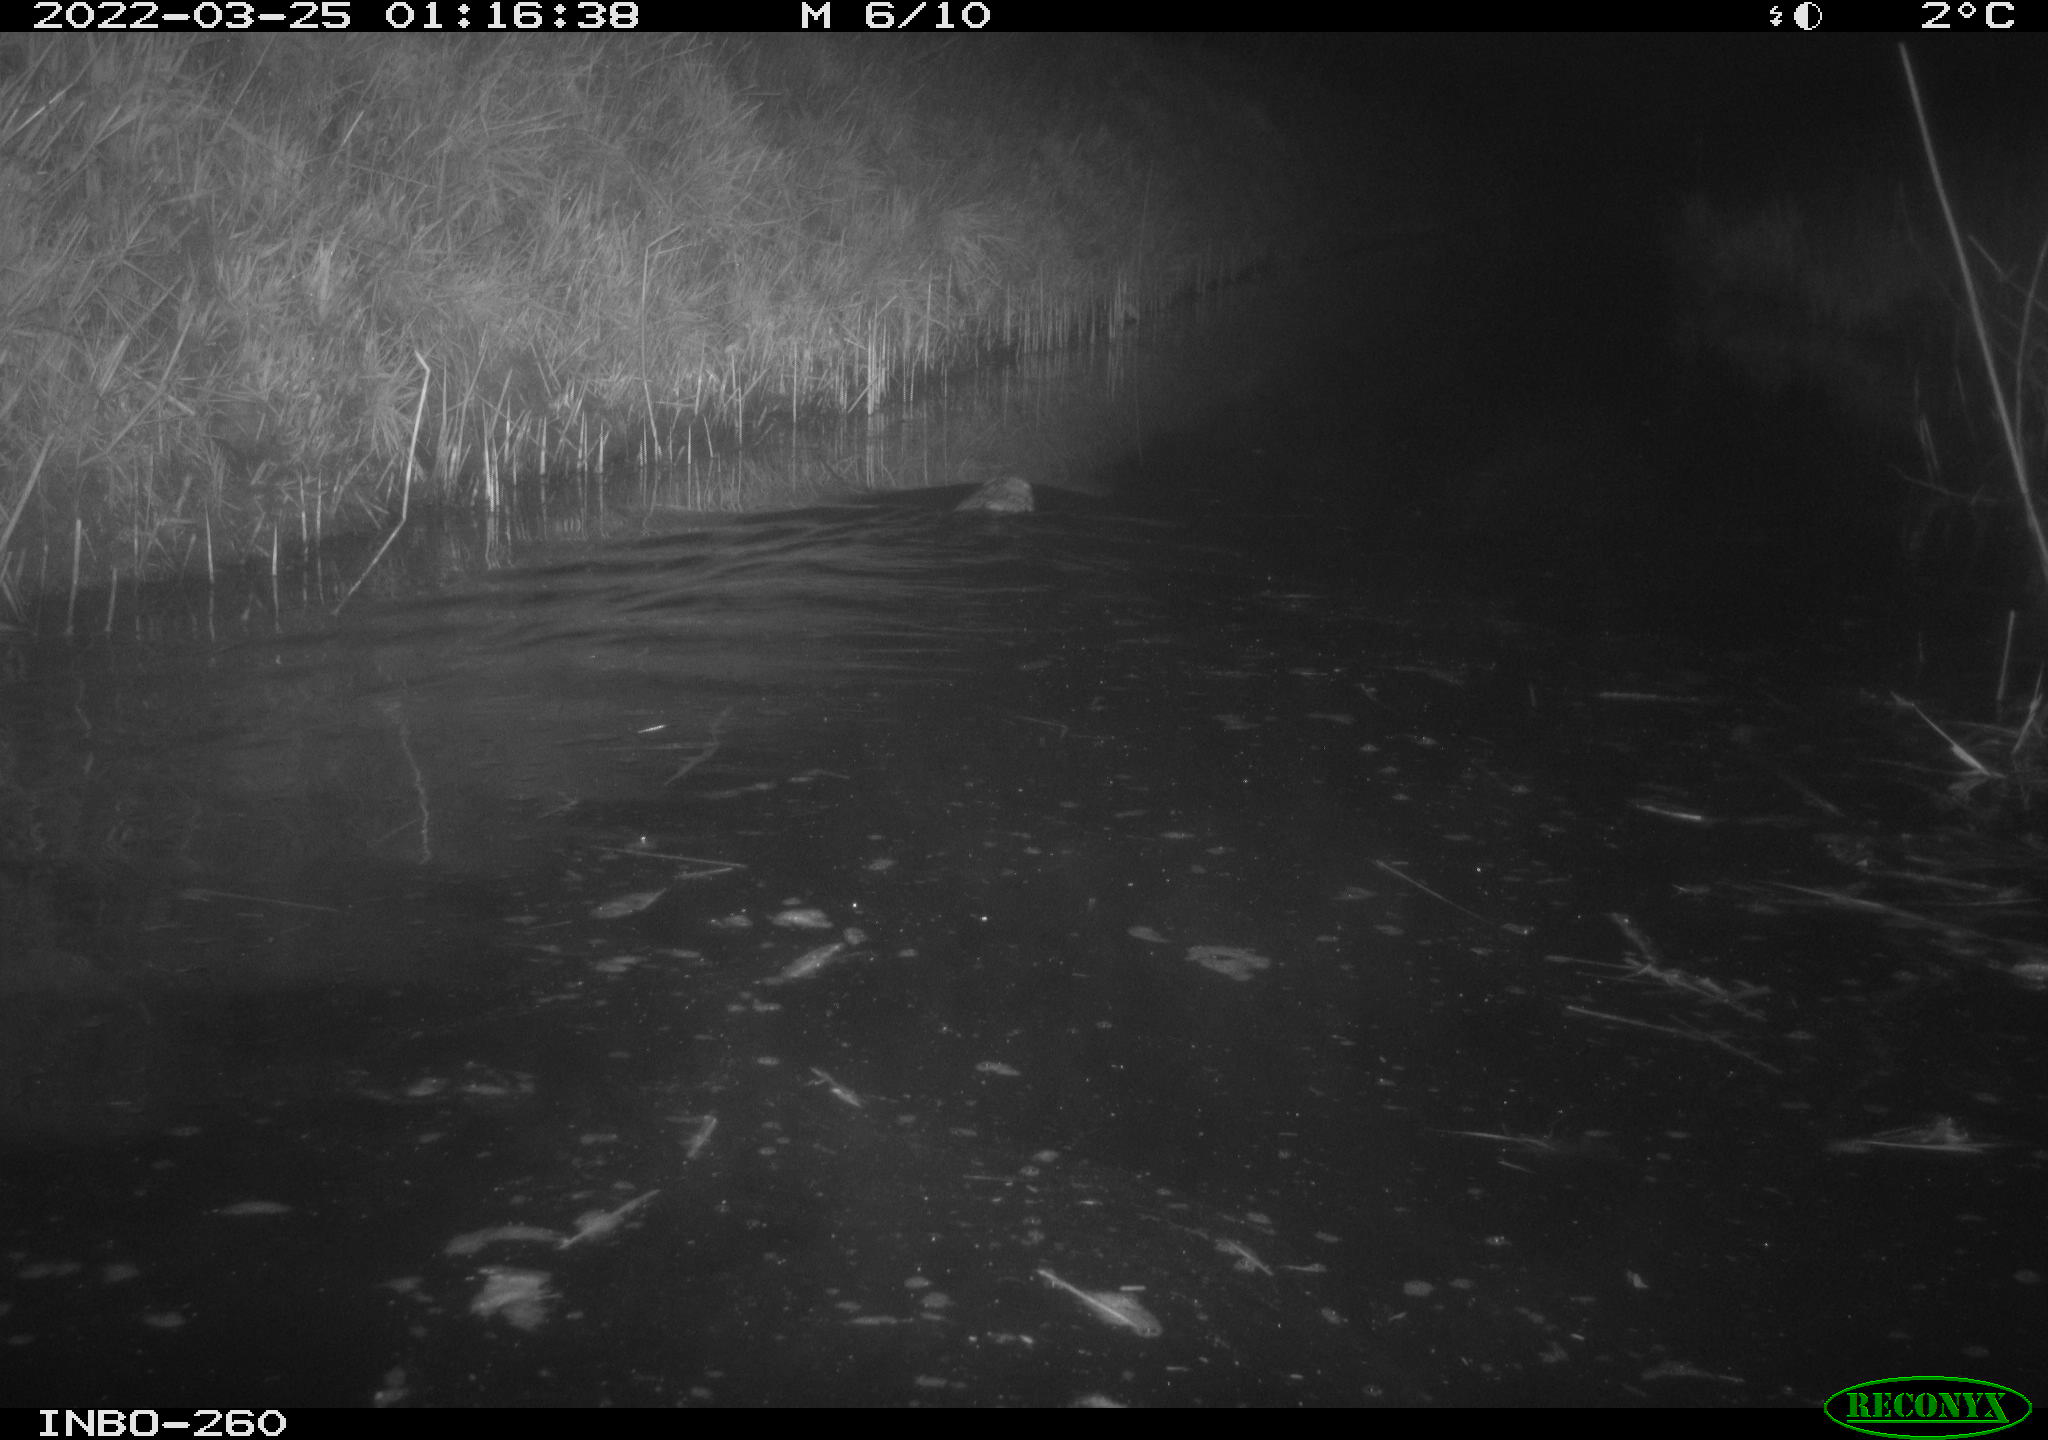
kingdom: Animalia
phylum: Chordata
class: Mammalia
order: Rodentia
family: Cricetidae
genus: Ondatra
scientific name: Ondatra zibethicus
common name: Muskrat
